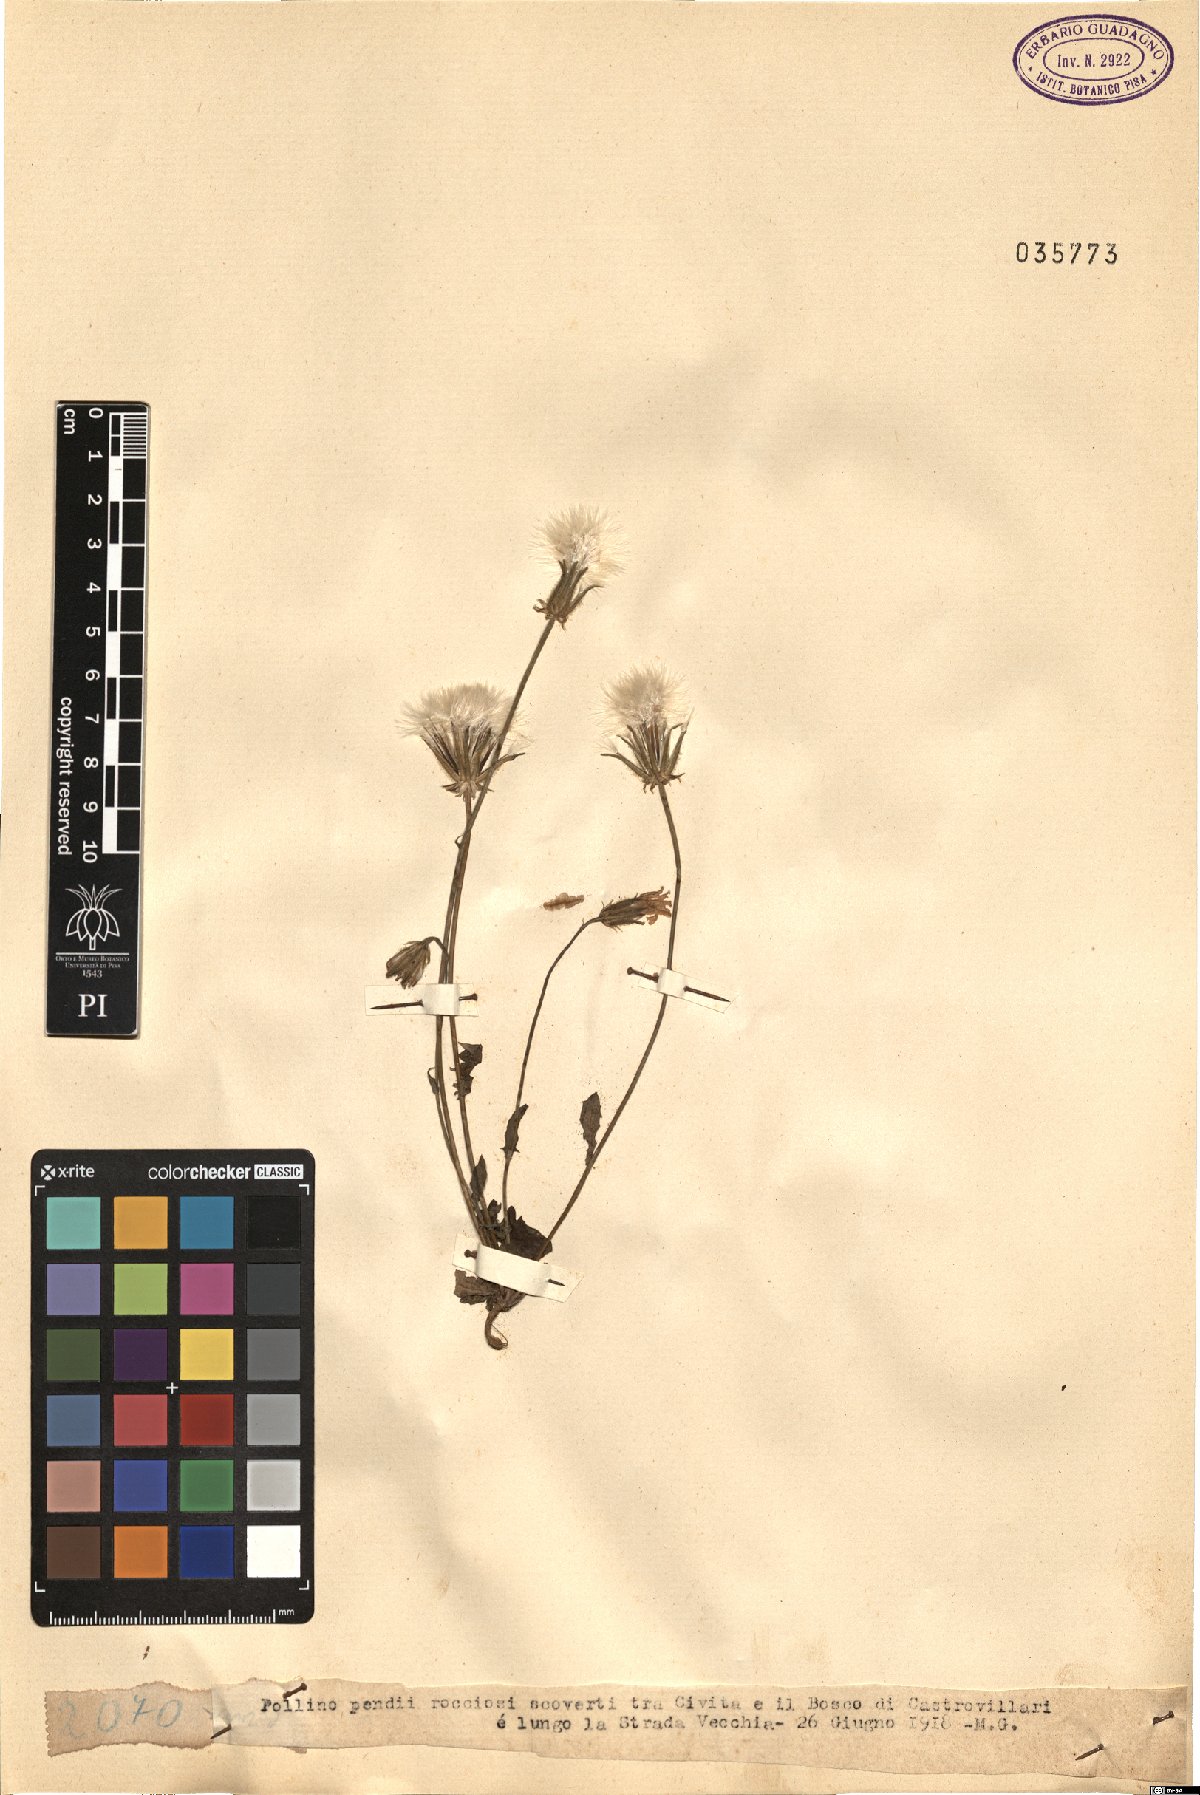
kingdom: Plantae
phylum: Tracheophyta
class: Magnoliopsida
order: Asterales
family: Asteraceae
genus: Crepis
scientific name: Crepis
